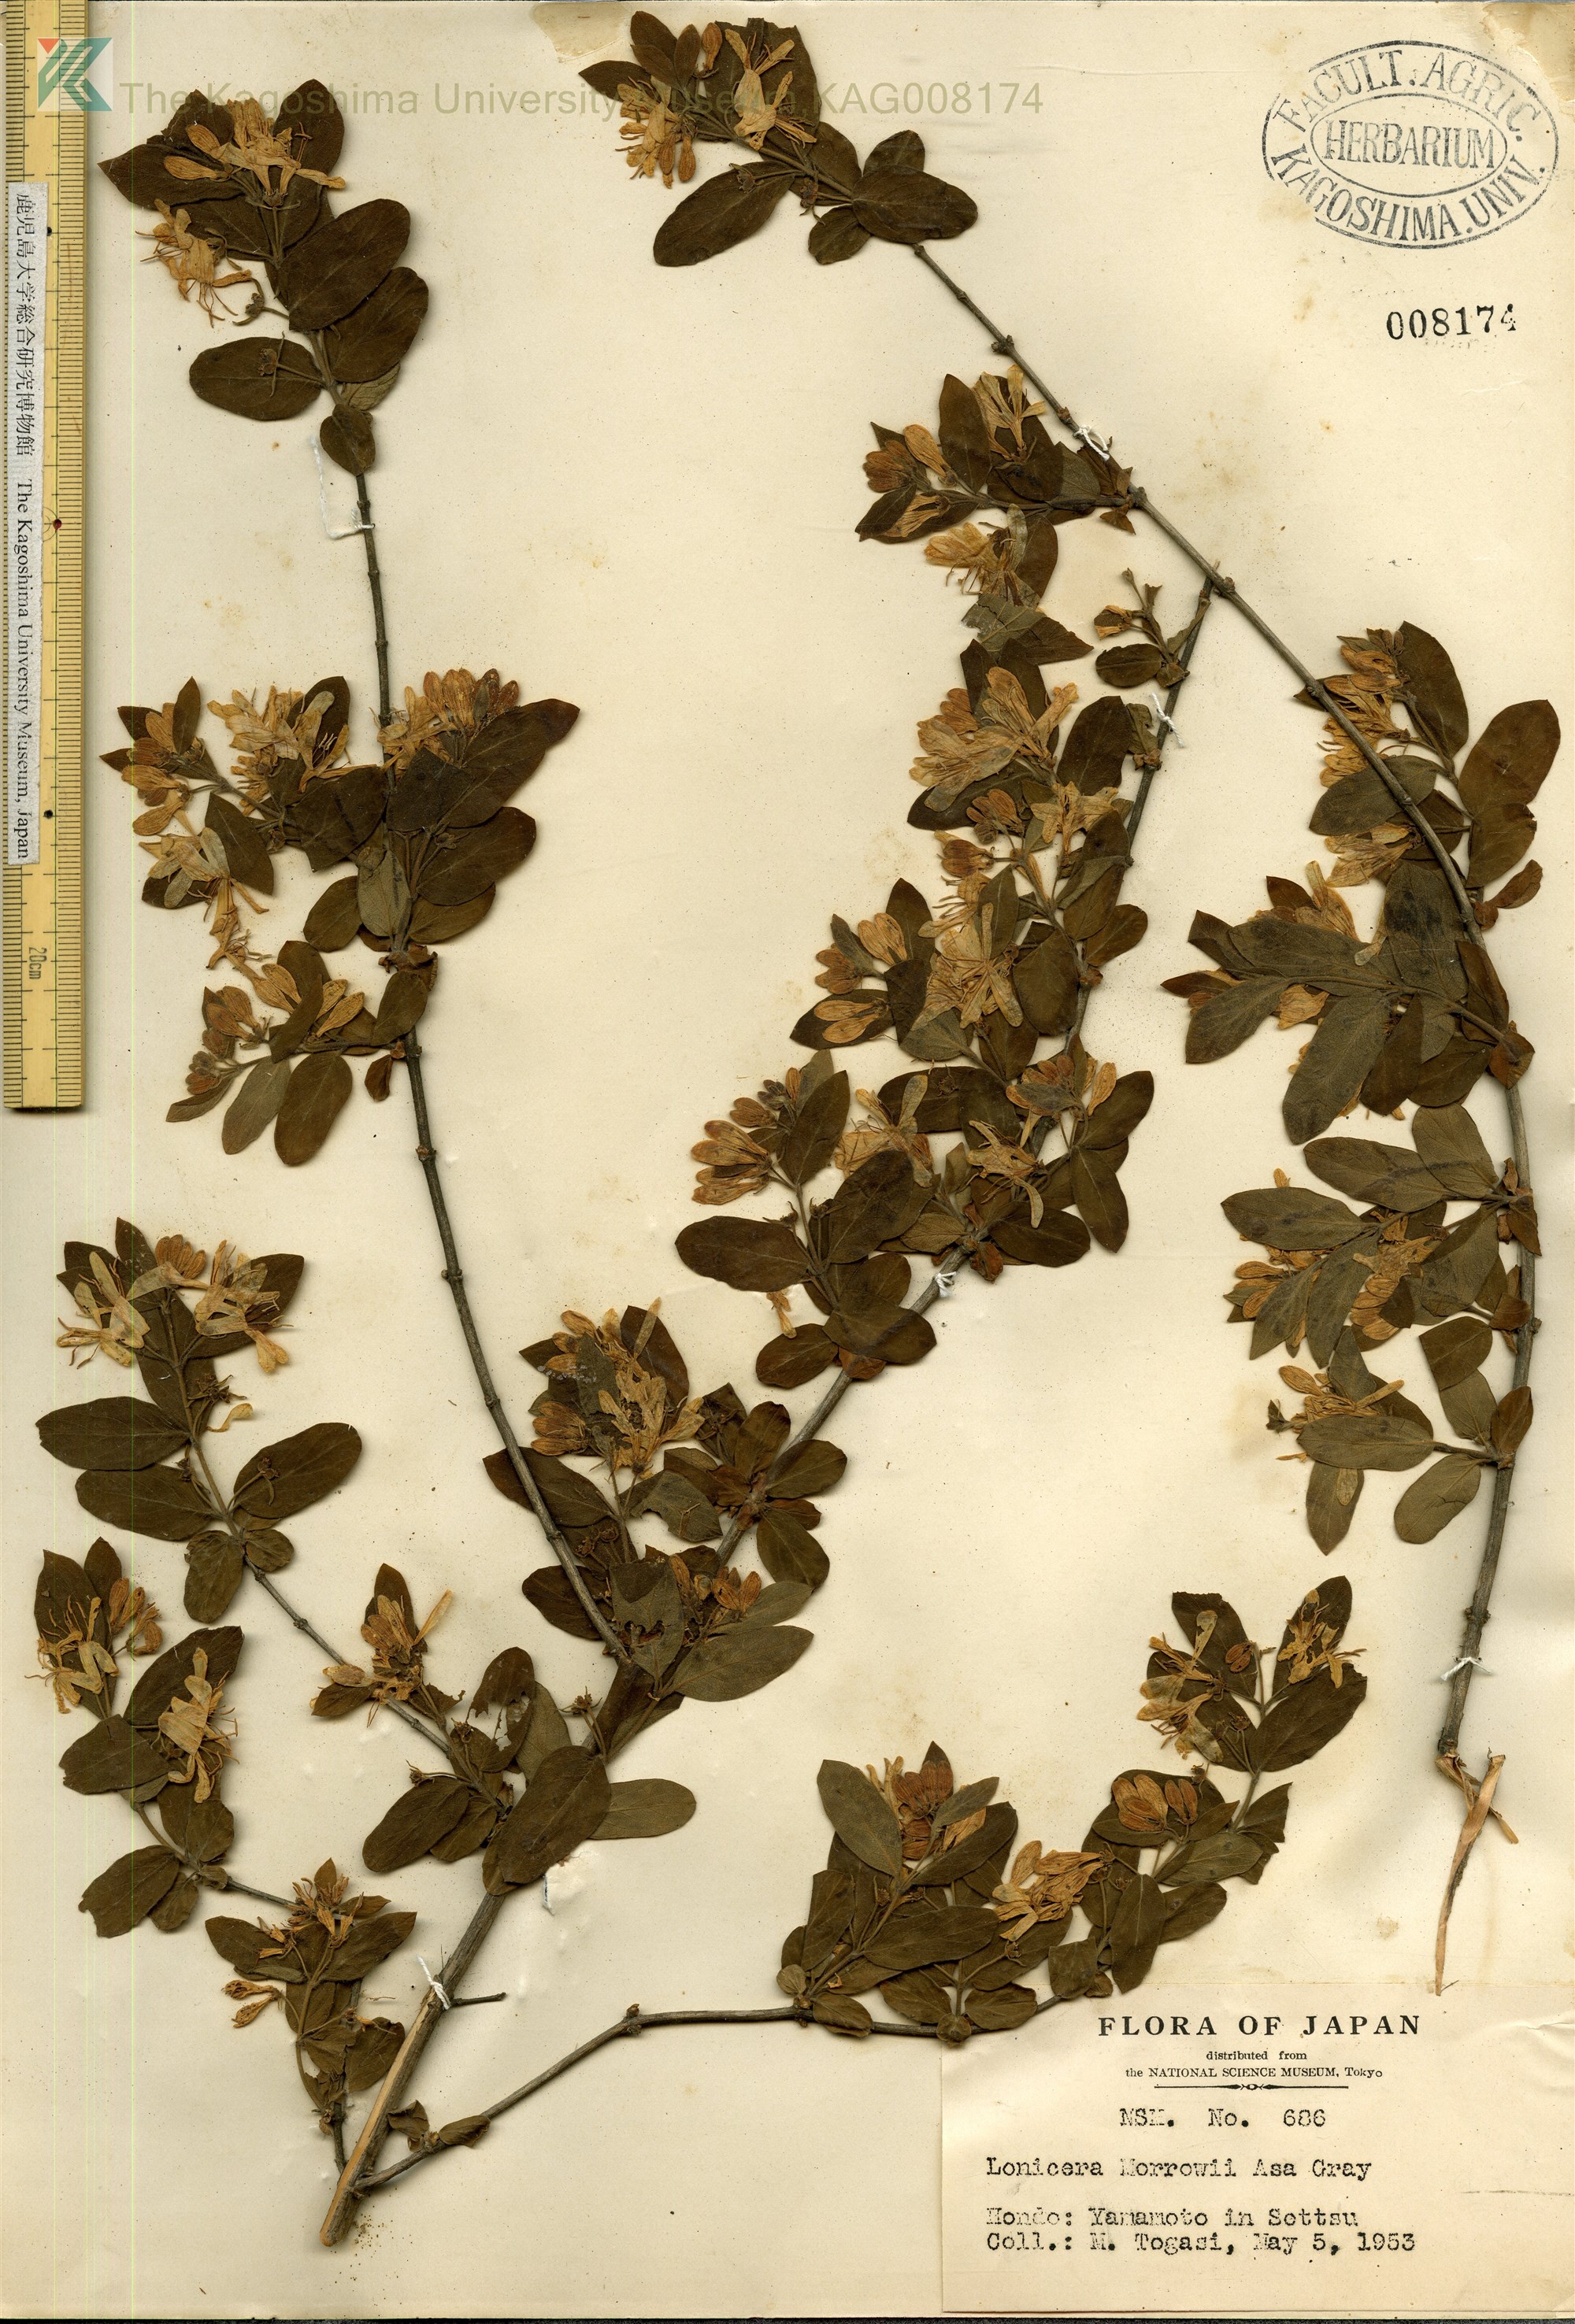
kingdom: Plantae
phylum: Tracheophyta
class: Magnoliopsida
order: Dipsacales
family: Caprifoliaceae
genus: Lonicera
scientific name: Lonicera morrowii
